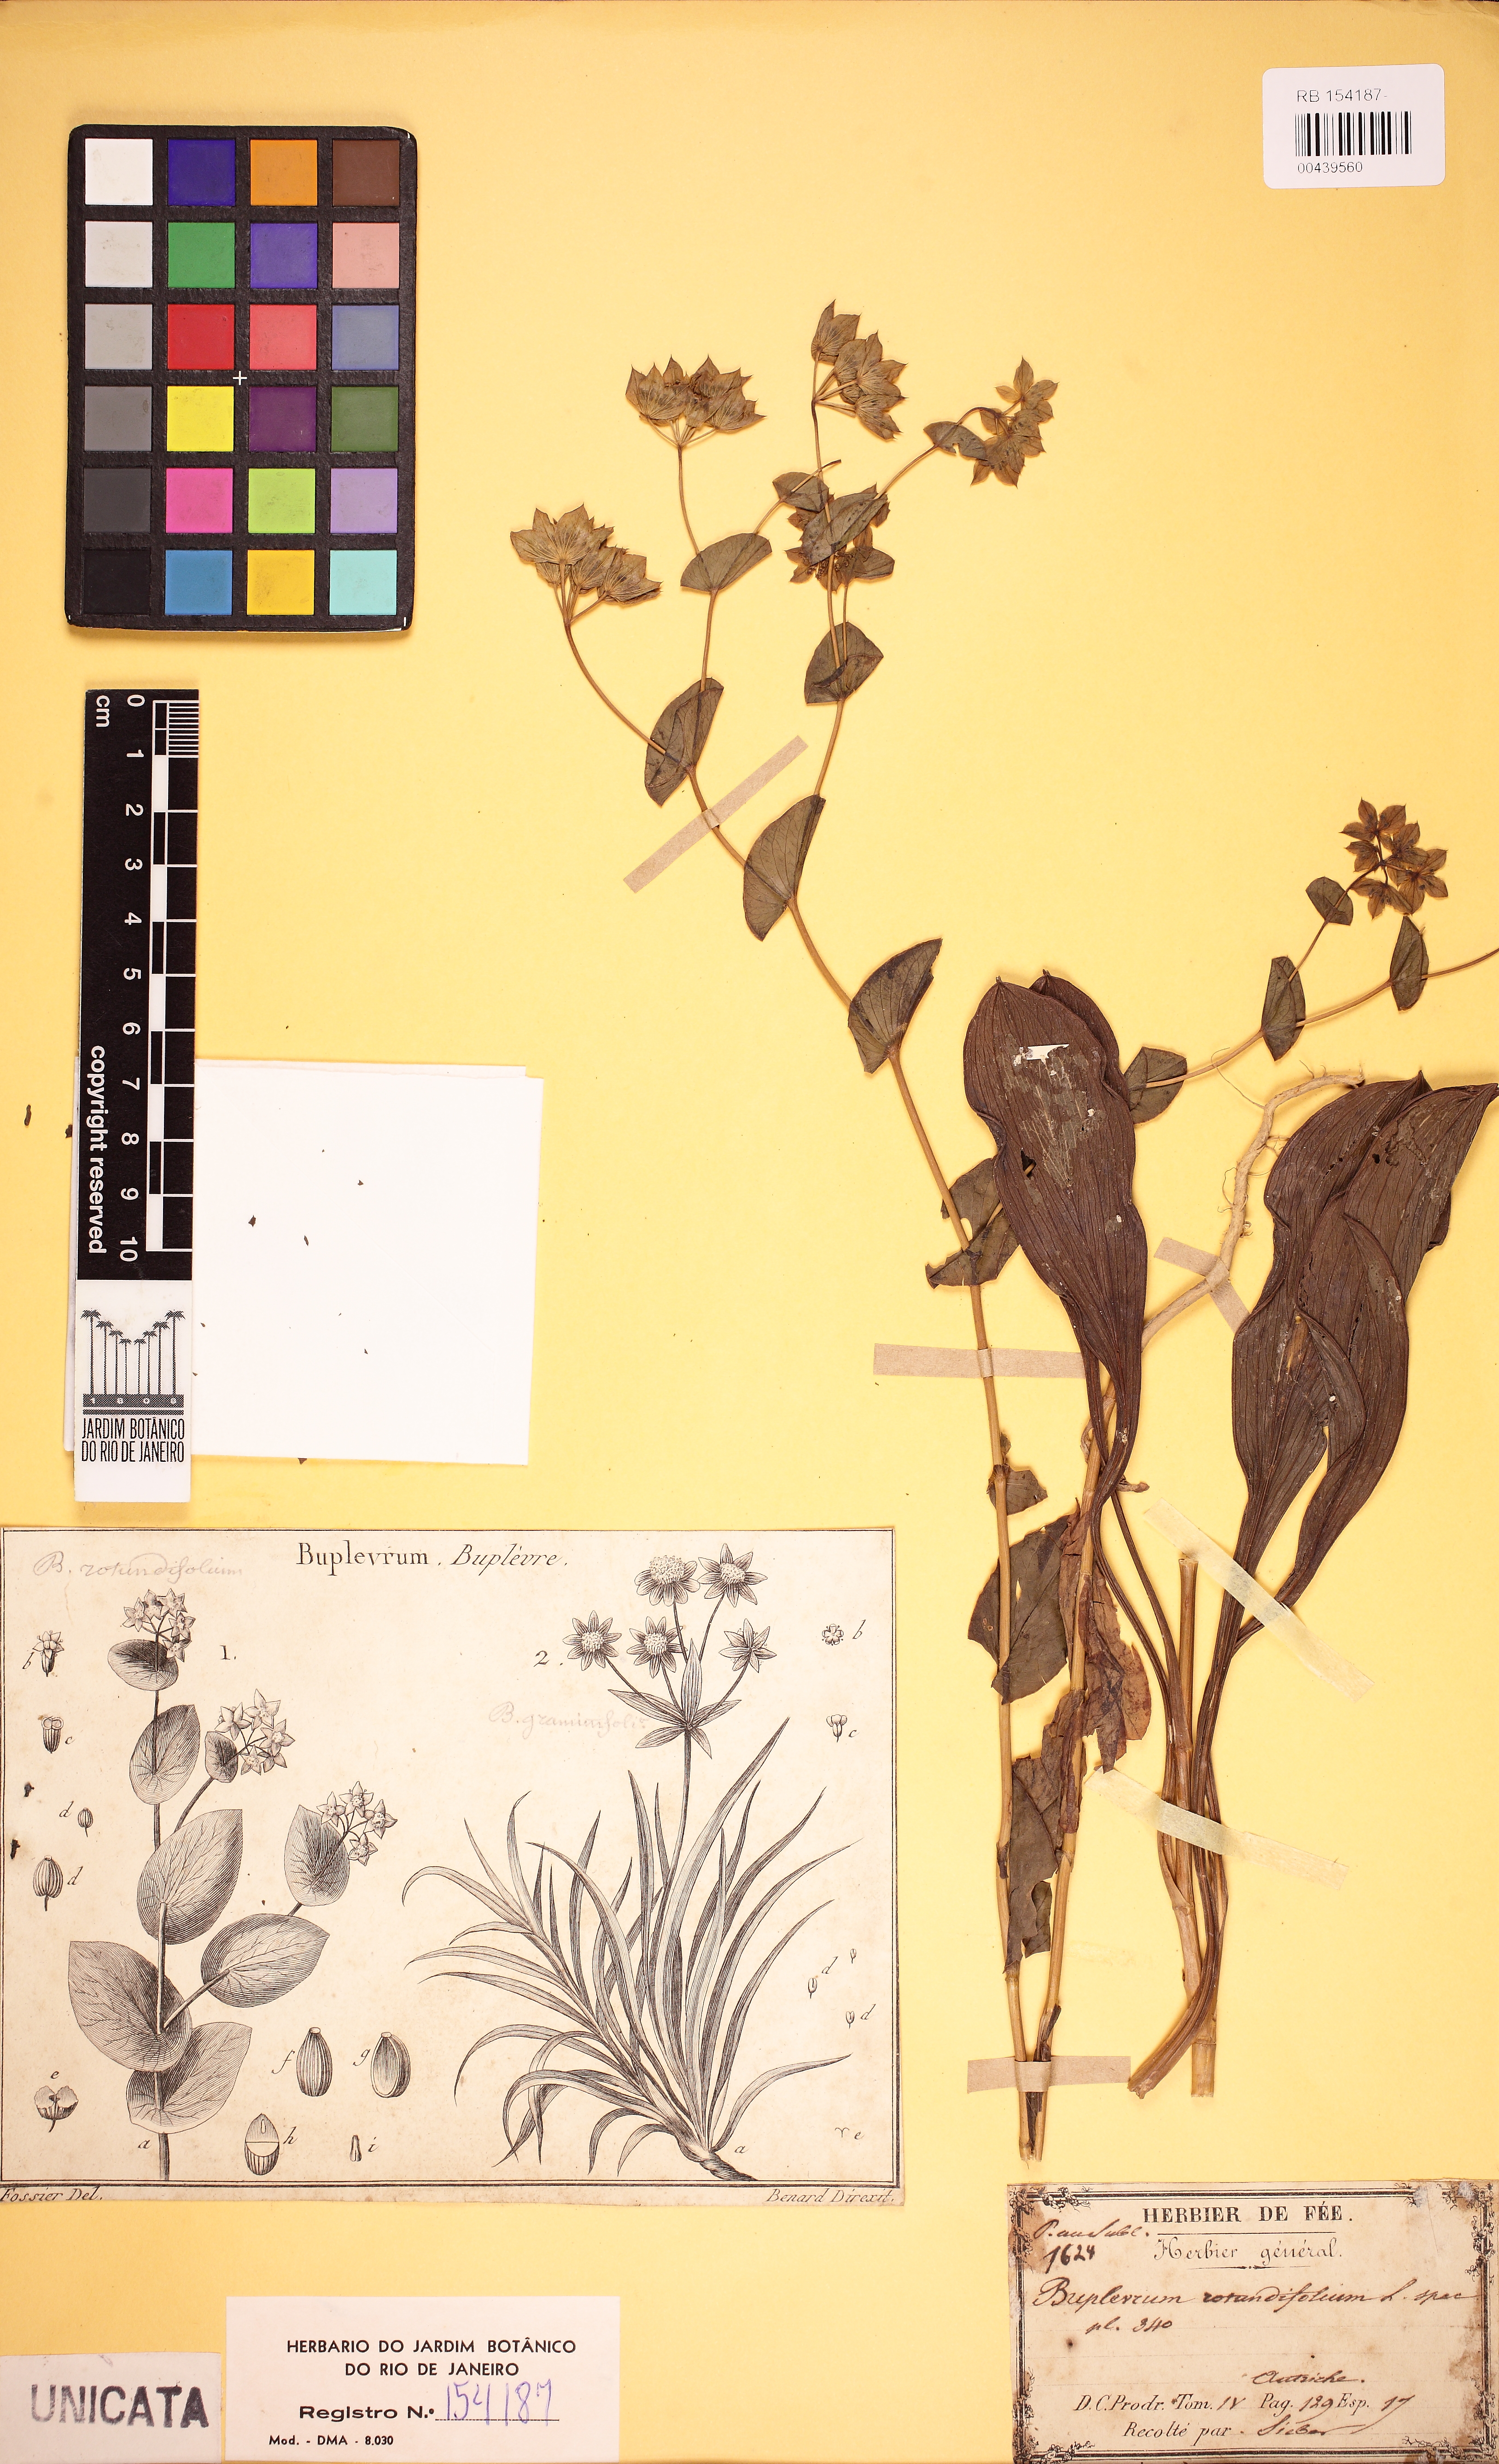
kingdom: Plantae
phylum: Tracheophyta
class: Magnoliopsida
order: Apiales
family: Apiaceae
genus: Bupleurum
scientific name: Bupleurum rotundifolium
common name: Thorow-wax
